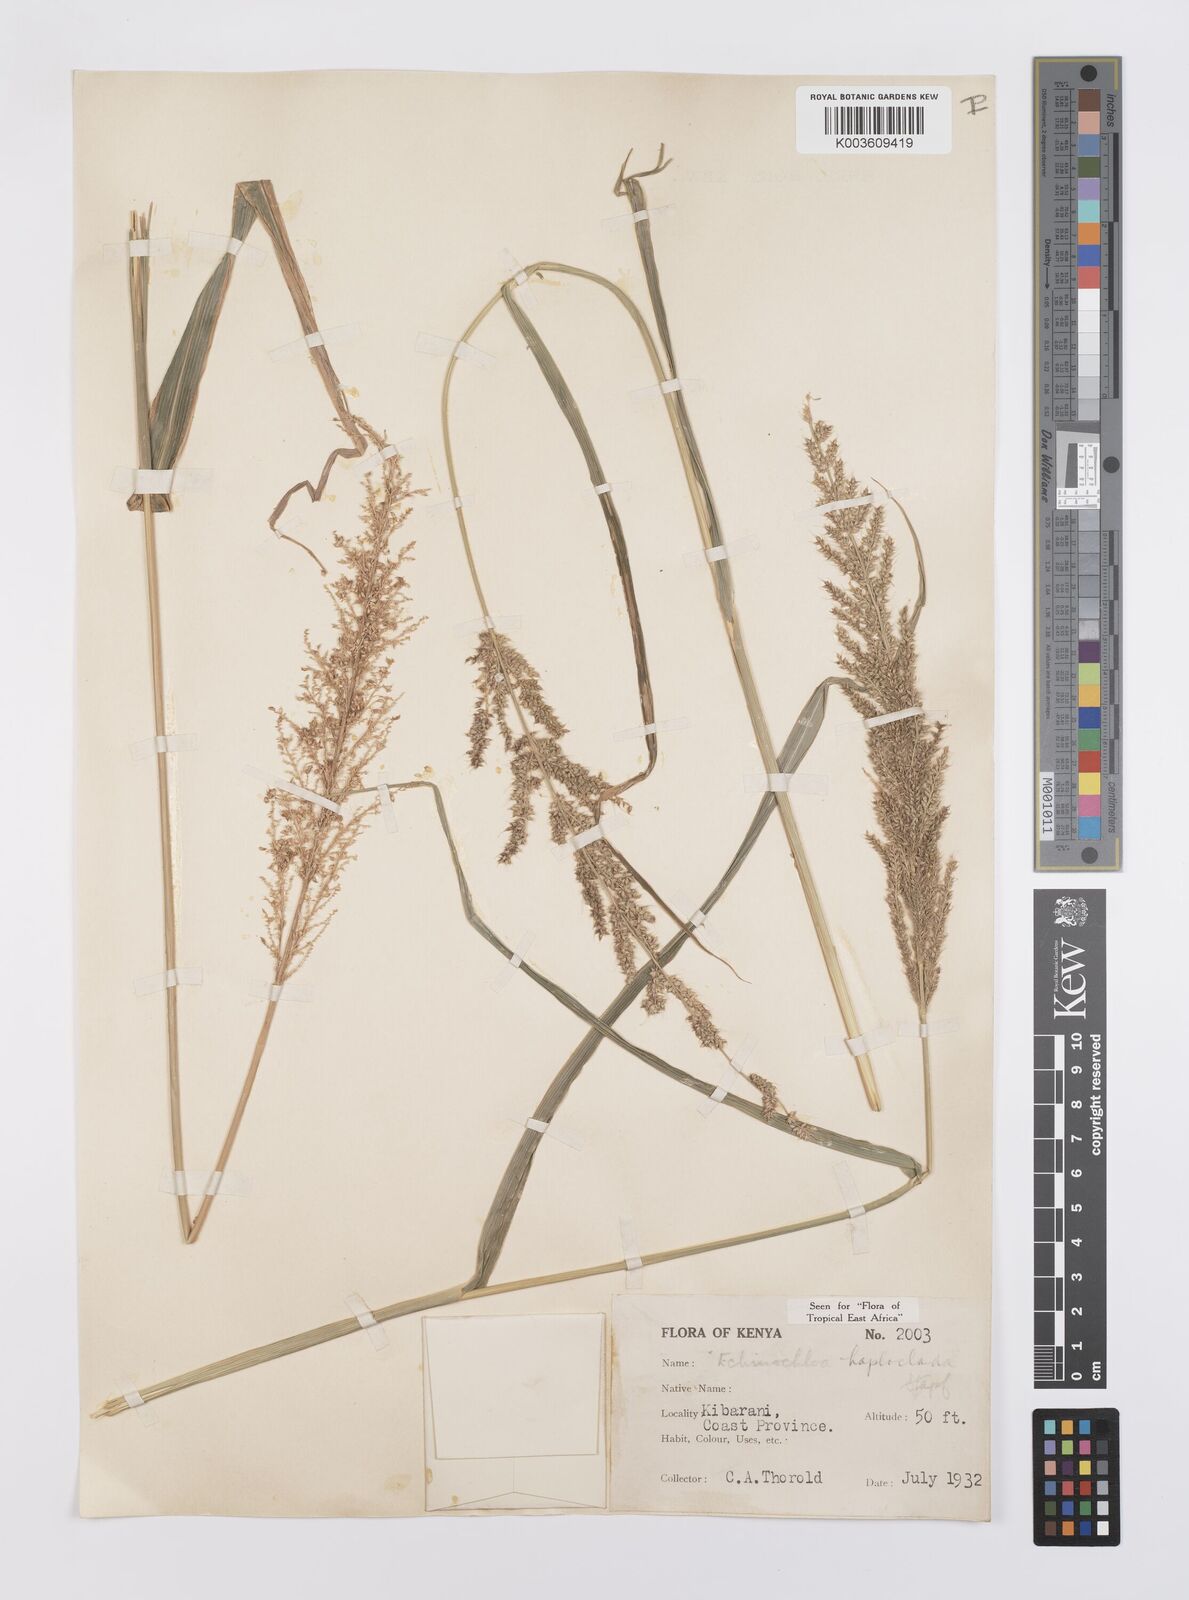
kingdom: Plantae
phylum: Tracheophyta
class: Liliopsida
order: Poales
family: Poaceae
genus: Echinochloa
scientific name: Echinochloa haploclada
